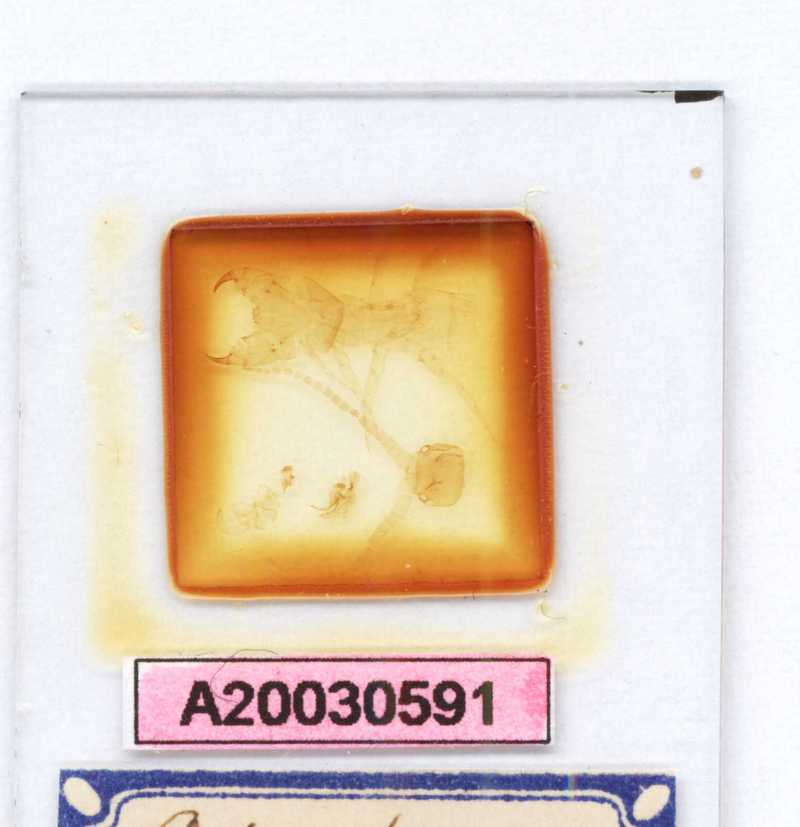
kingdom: Animalia
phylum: Arthropoda
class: Chilopoda
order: Scolopendromorpha
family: Scolopendridae
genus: Otostigmus
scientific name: Otostigmus noduliger
